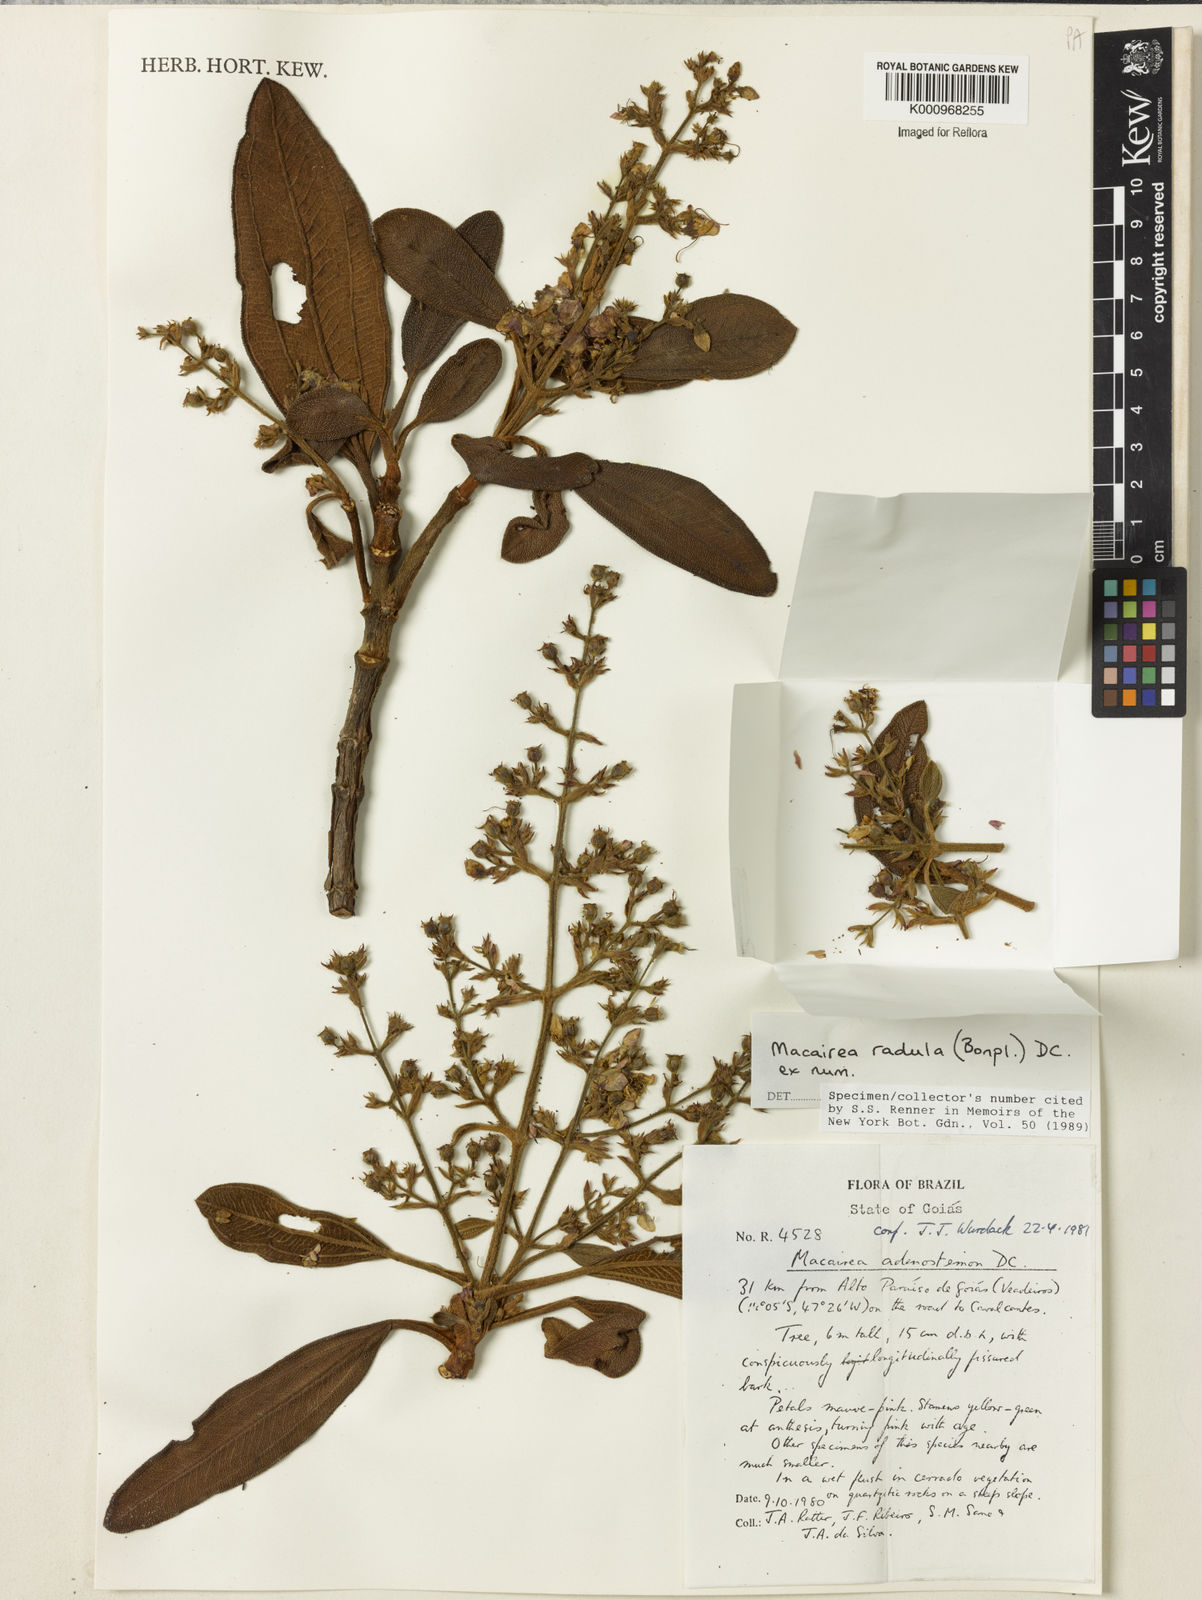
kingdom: Plantae
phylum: Tracheophyta
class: Magnoliopsida
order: Myrtales
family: Melastomataceae
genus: Macairea
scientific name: Macairea radula
